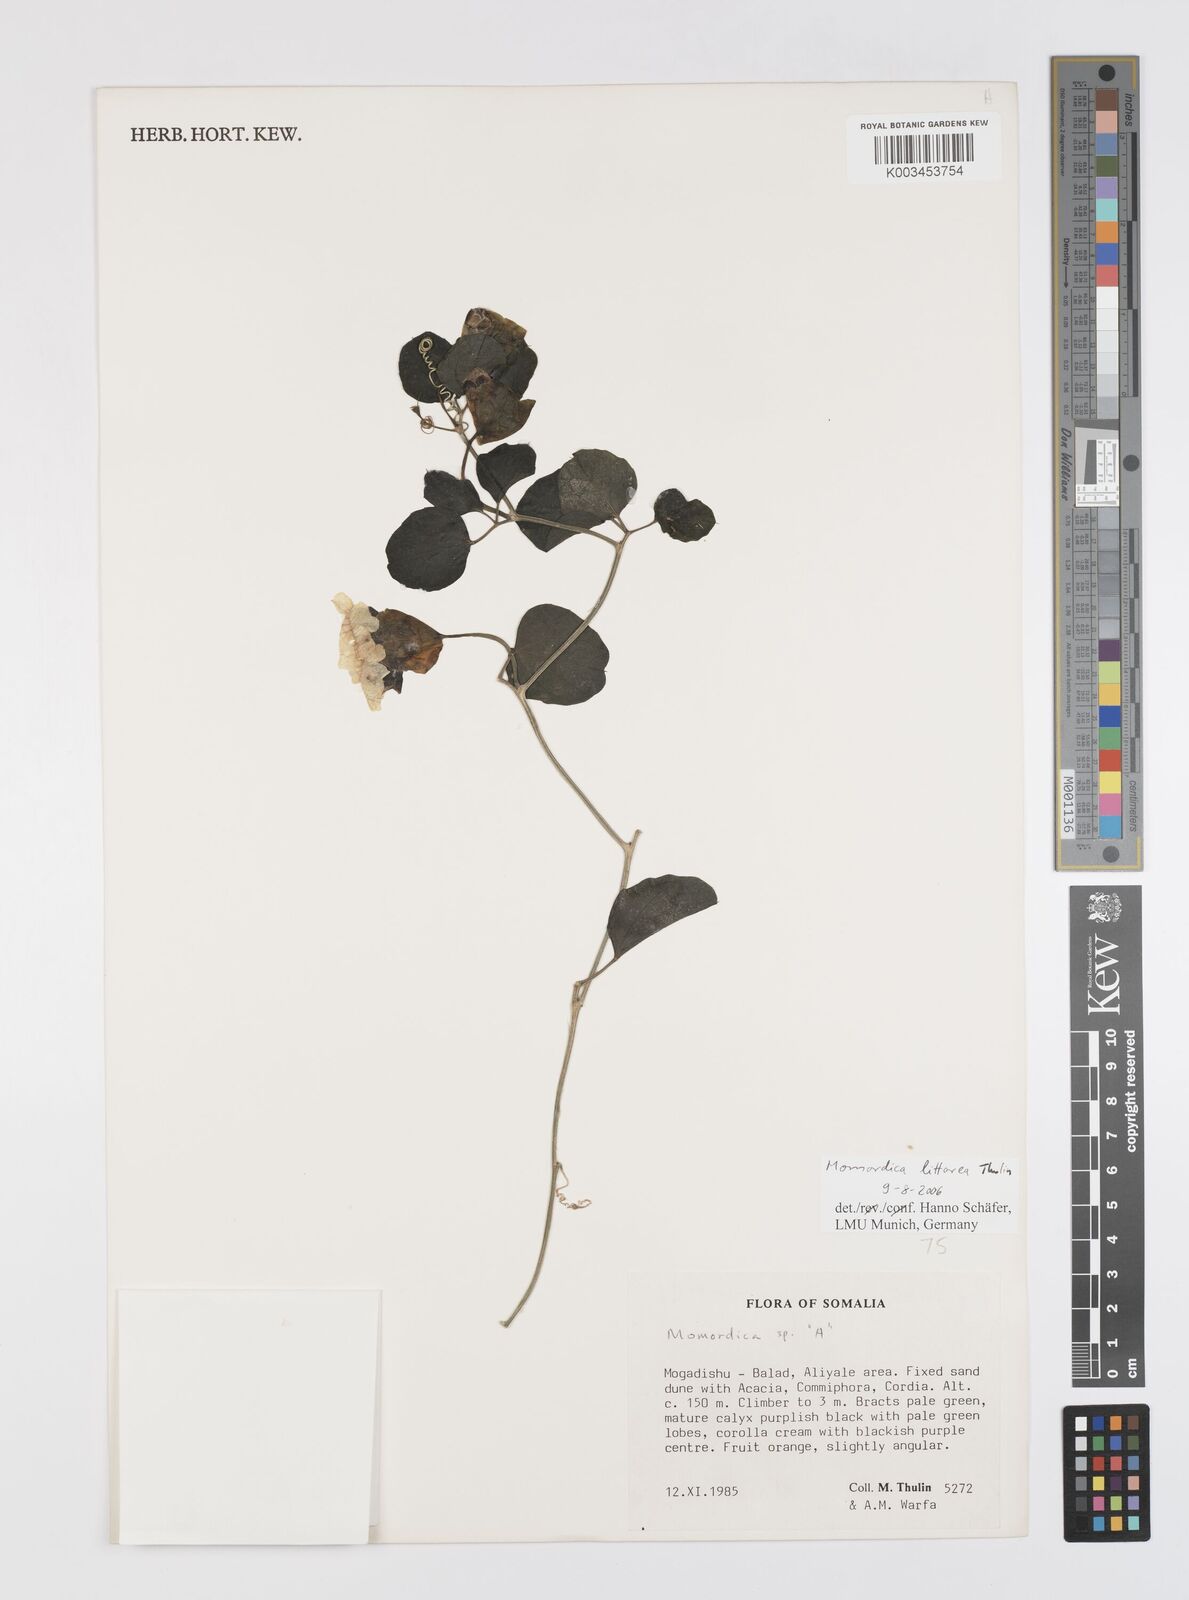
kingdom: Plantae
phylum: Tracheophyta
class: Magnoliopsida
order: Cucurbitales
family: Cucurbitaceae
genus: Momordica
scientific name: Momordica littorea
